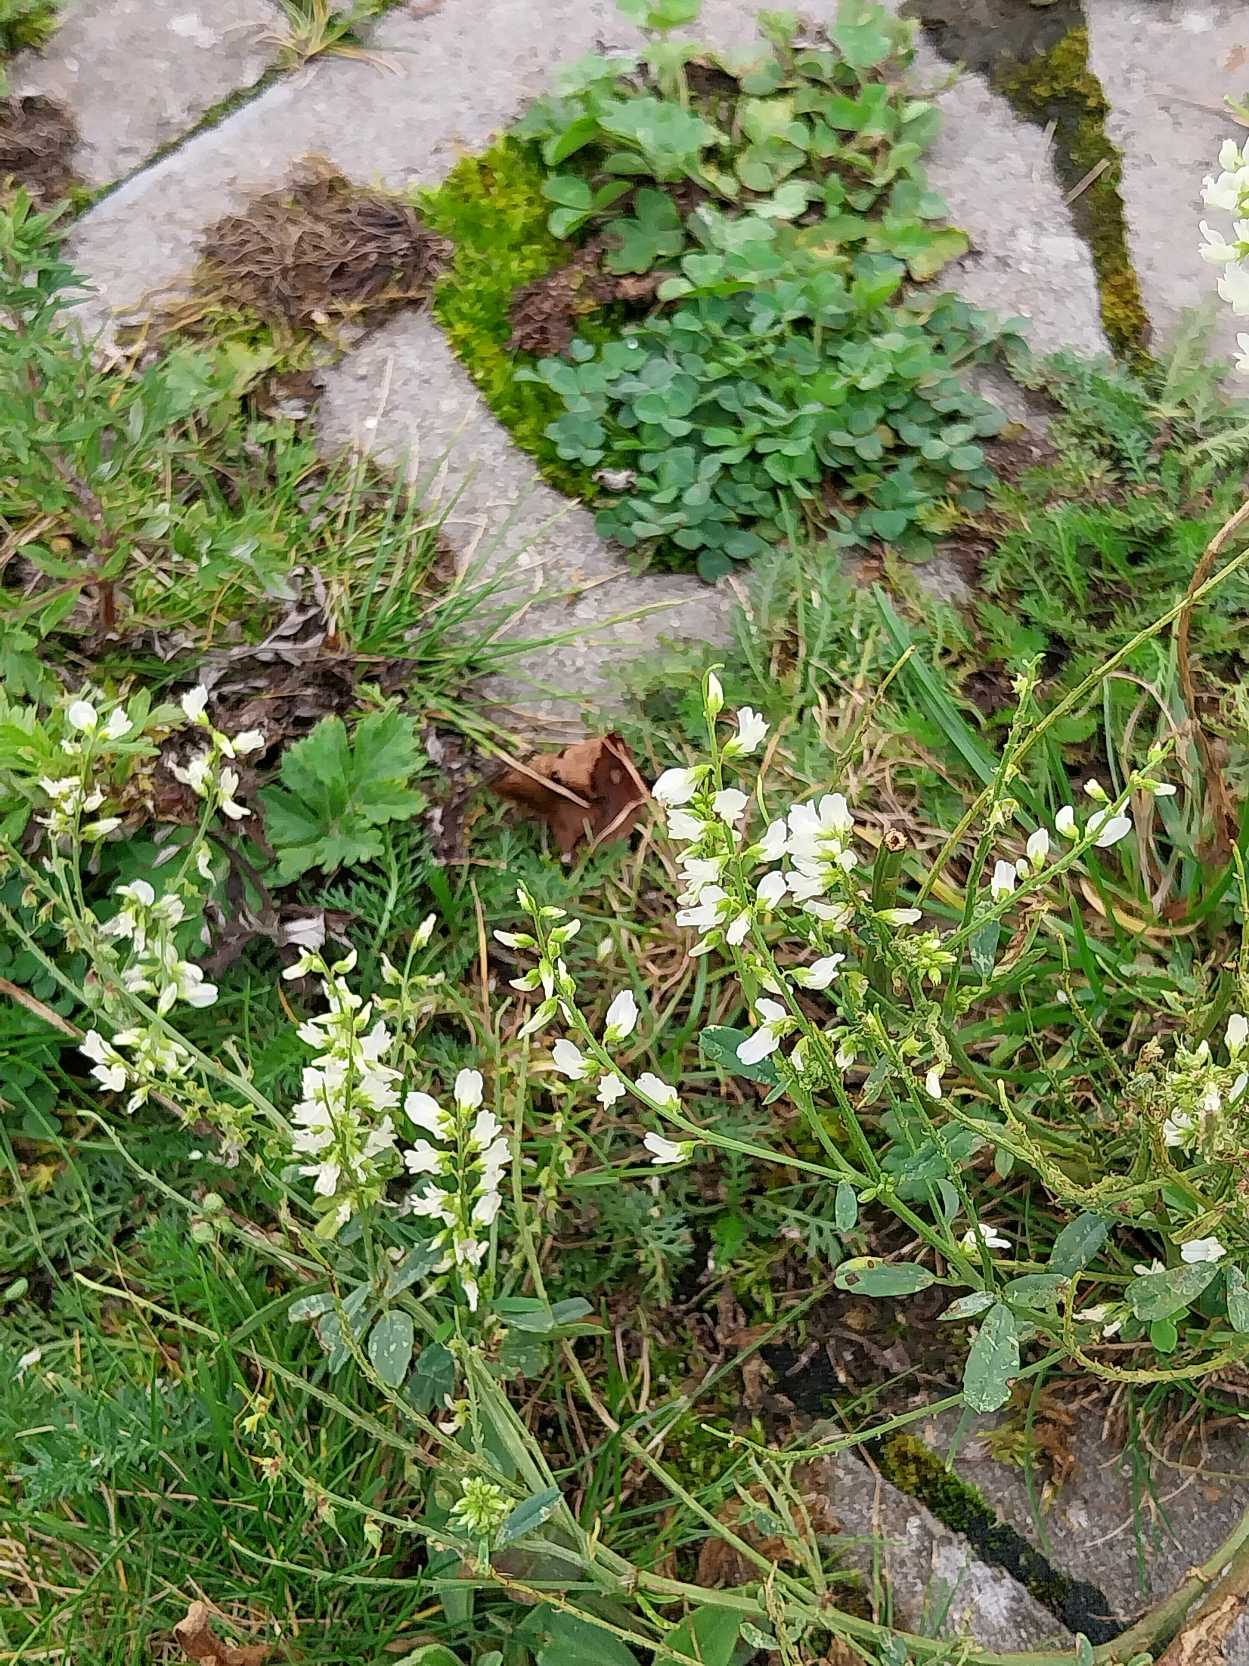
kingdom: Plantae
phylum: Tracheophyta
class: Magnoliopsida
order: Fabales
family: Fabaceae
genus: Melilotus
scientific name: Melilotus albus
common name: Hvid stenkløver
